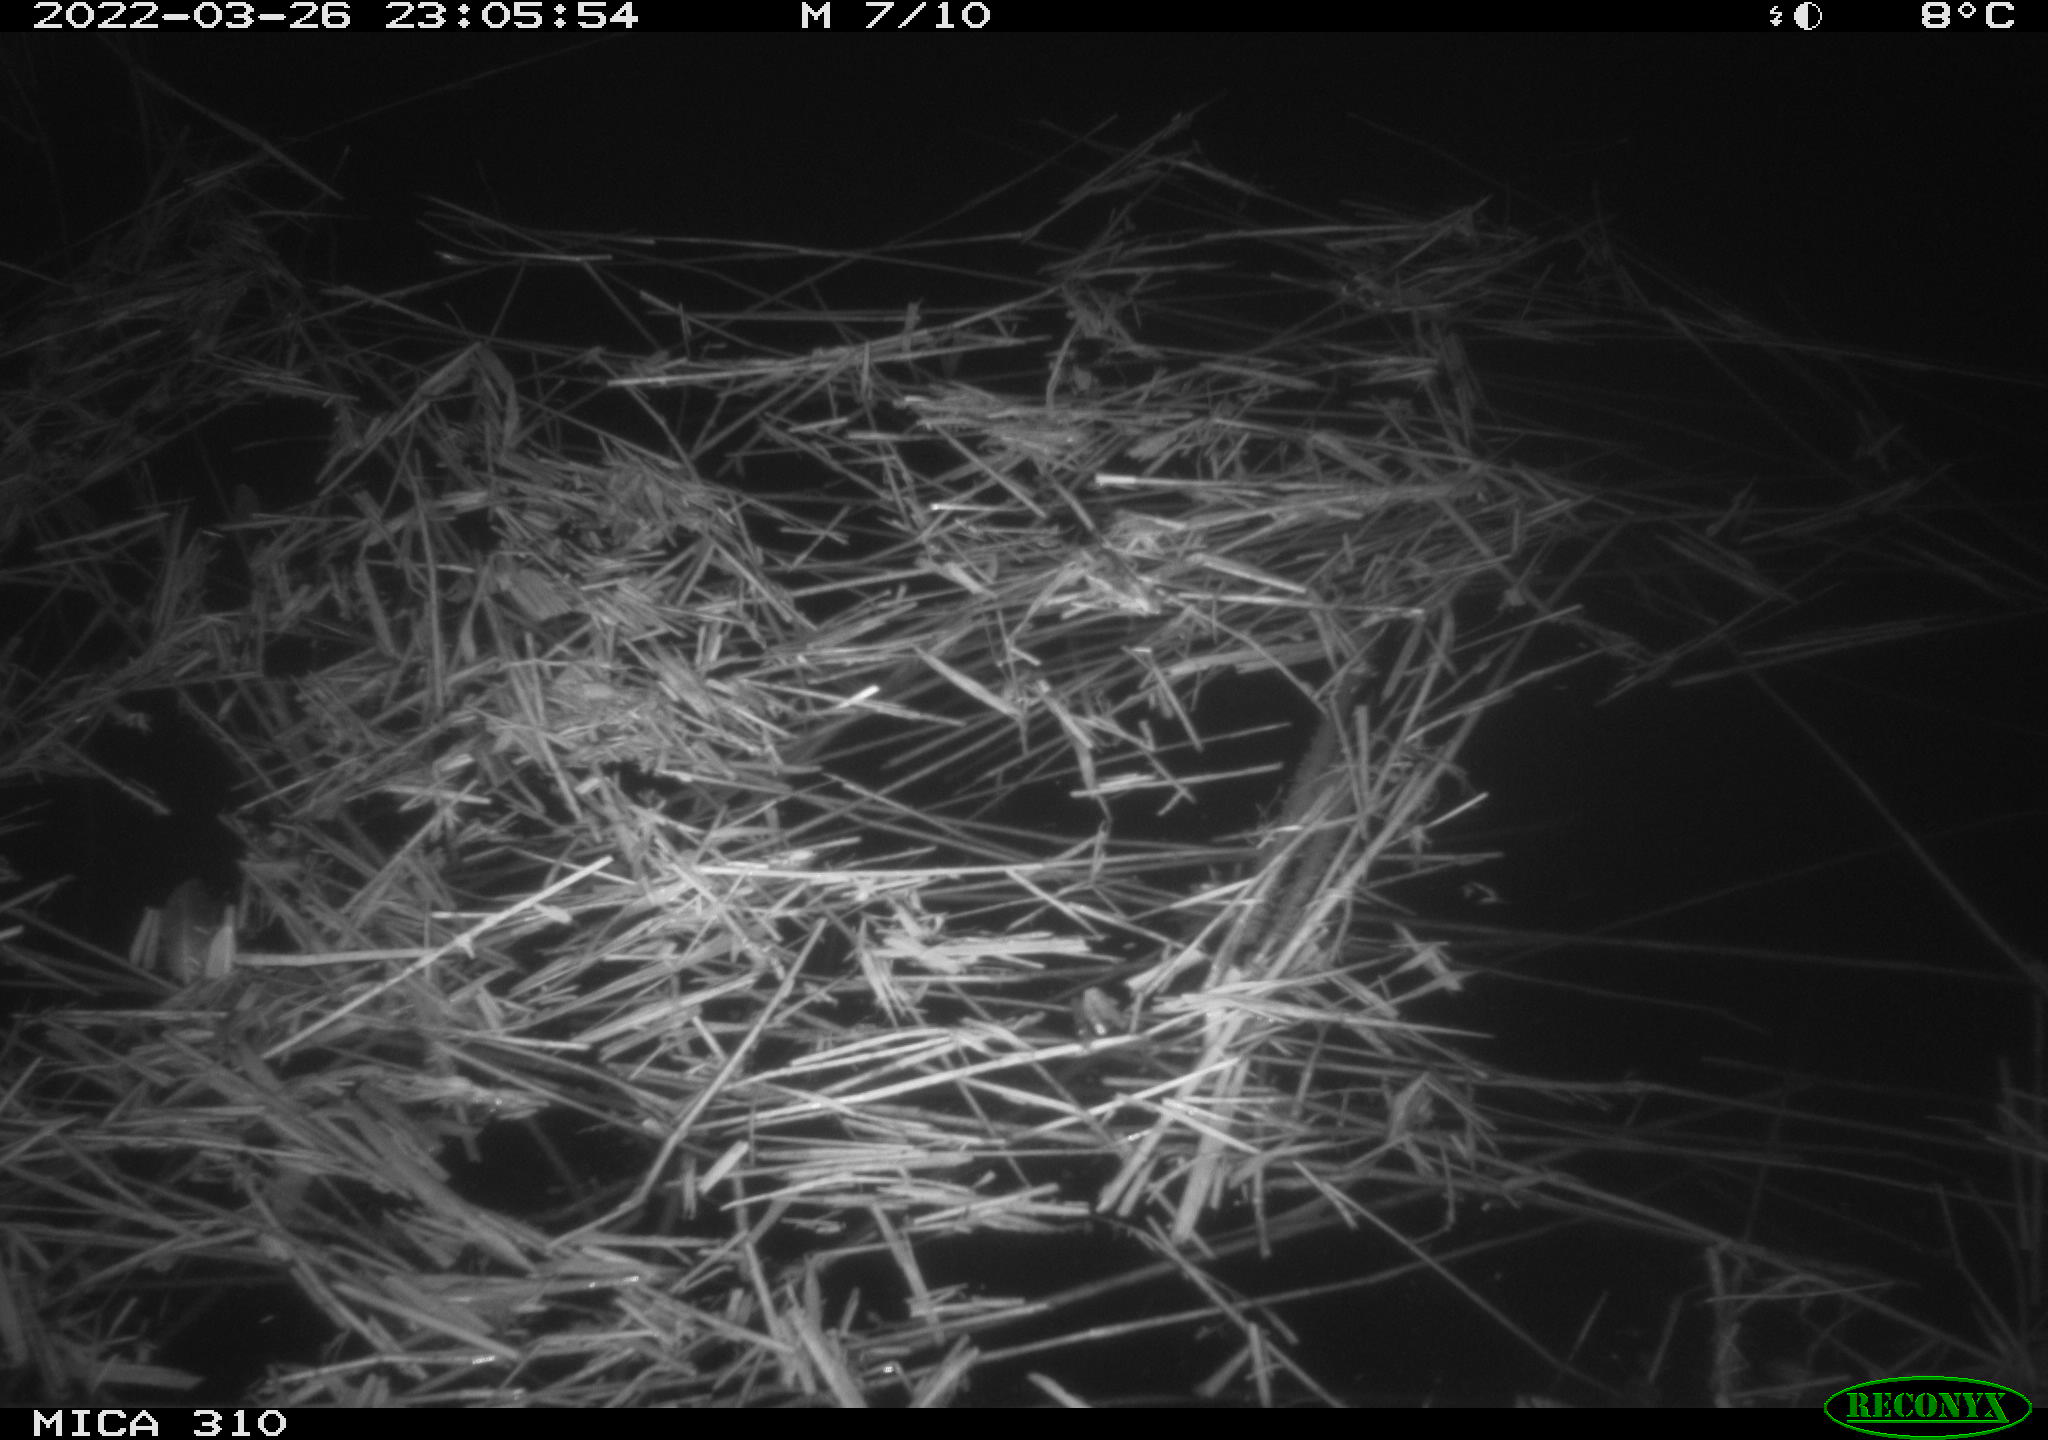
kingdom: Animalia
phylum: Chordata
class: Aves
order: Anseriformes
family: Anatidae
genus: Anas
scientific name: Anas platyrhynchos
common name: Mallard
